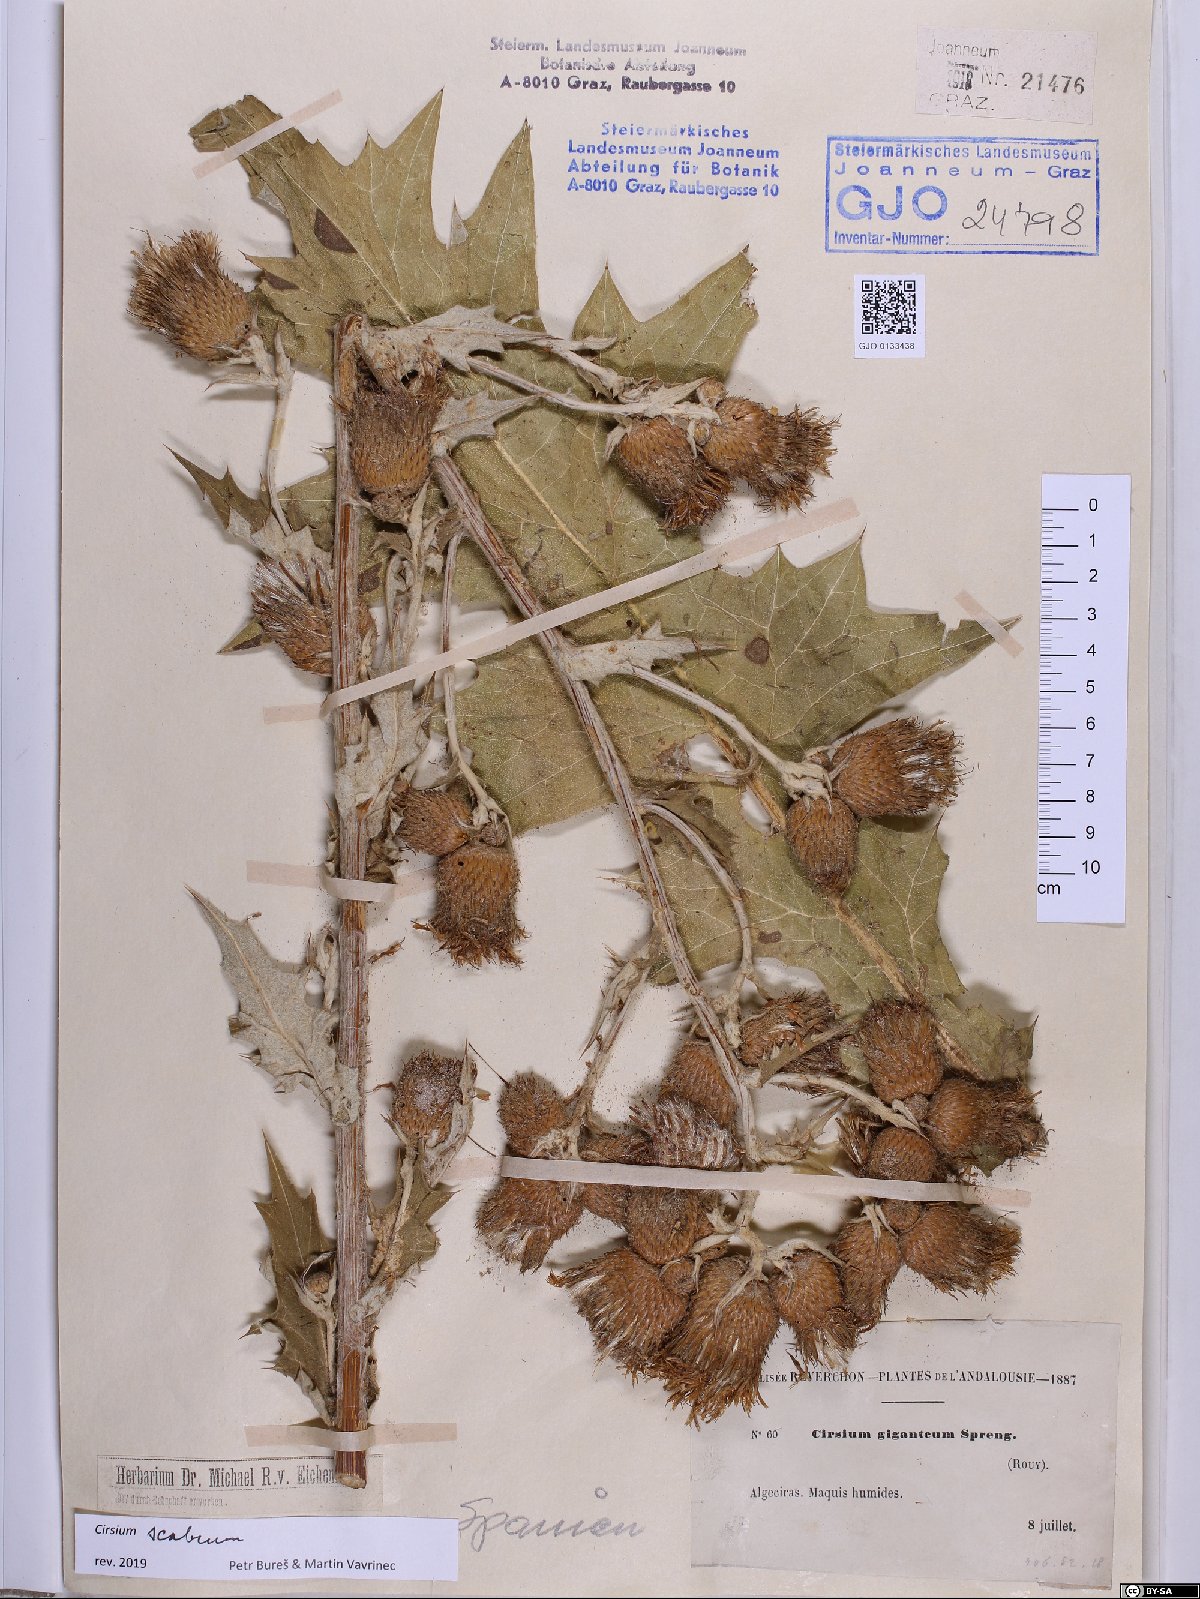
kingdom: Plantae
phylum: Tracheophyta
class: Magnoliopsida
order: Asterales
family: Asteraceae
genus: Lophiolepis
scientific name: Lophiolepis scabra
